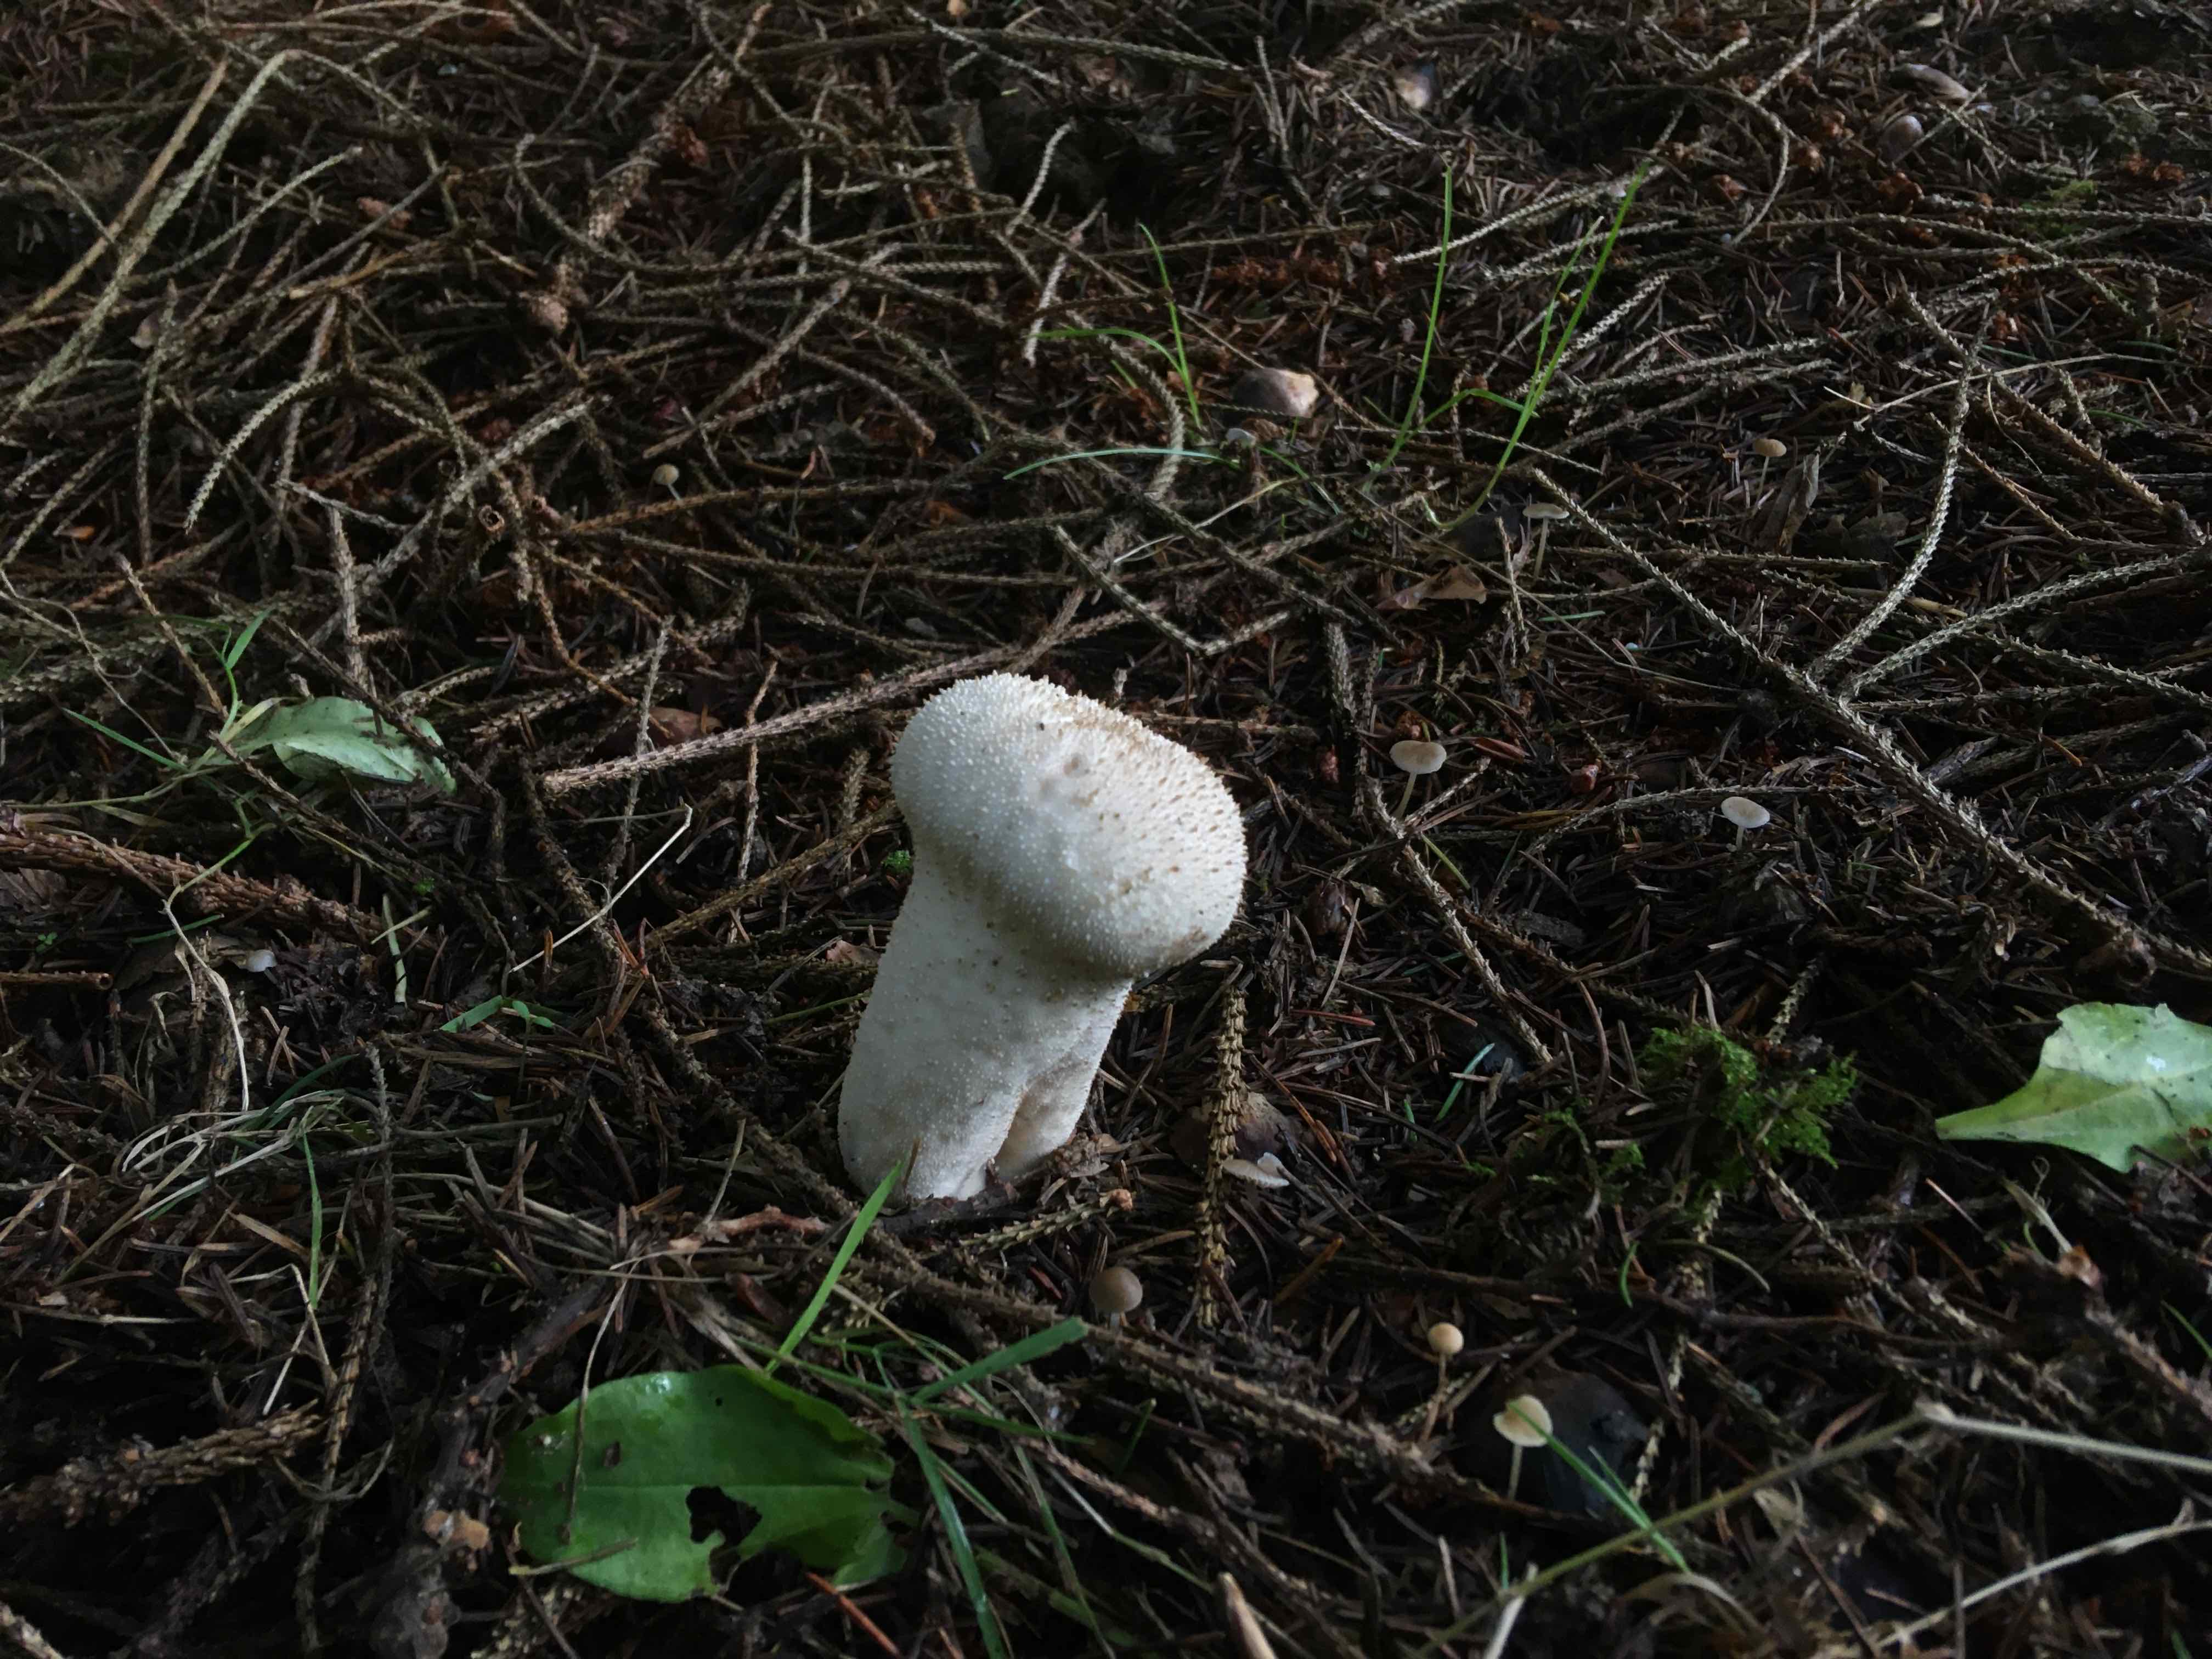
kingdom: Fungi
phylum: Basidiomycota
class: Agaricomycetes
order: Agaricales
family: Agaricaceae
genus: Lycoperdon
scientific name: Lycoperdon
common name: støvbold
